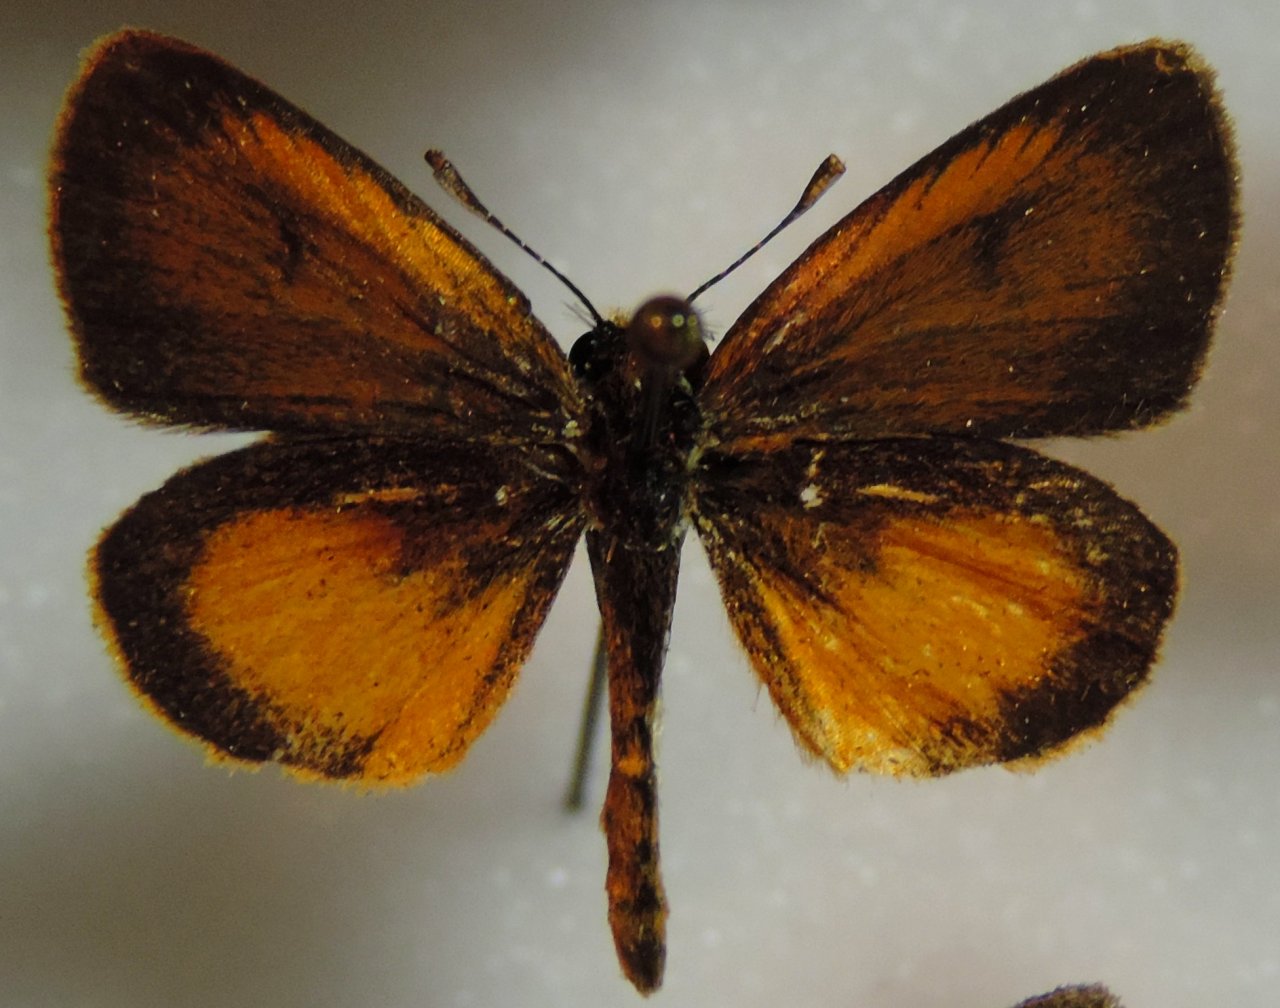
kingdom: Animalia
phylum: Arthropoda
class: Insecta
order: Lepidoptera
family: Hesperiidae
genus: Ancyloxypha
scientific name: Ancyloxypha numitor
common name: Least Skipper
